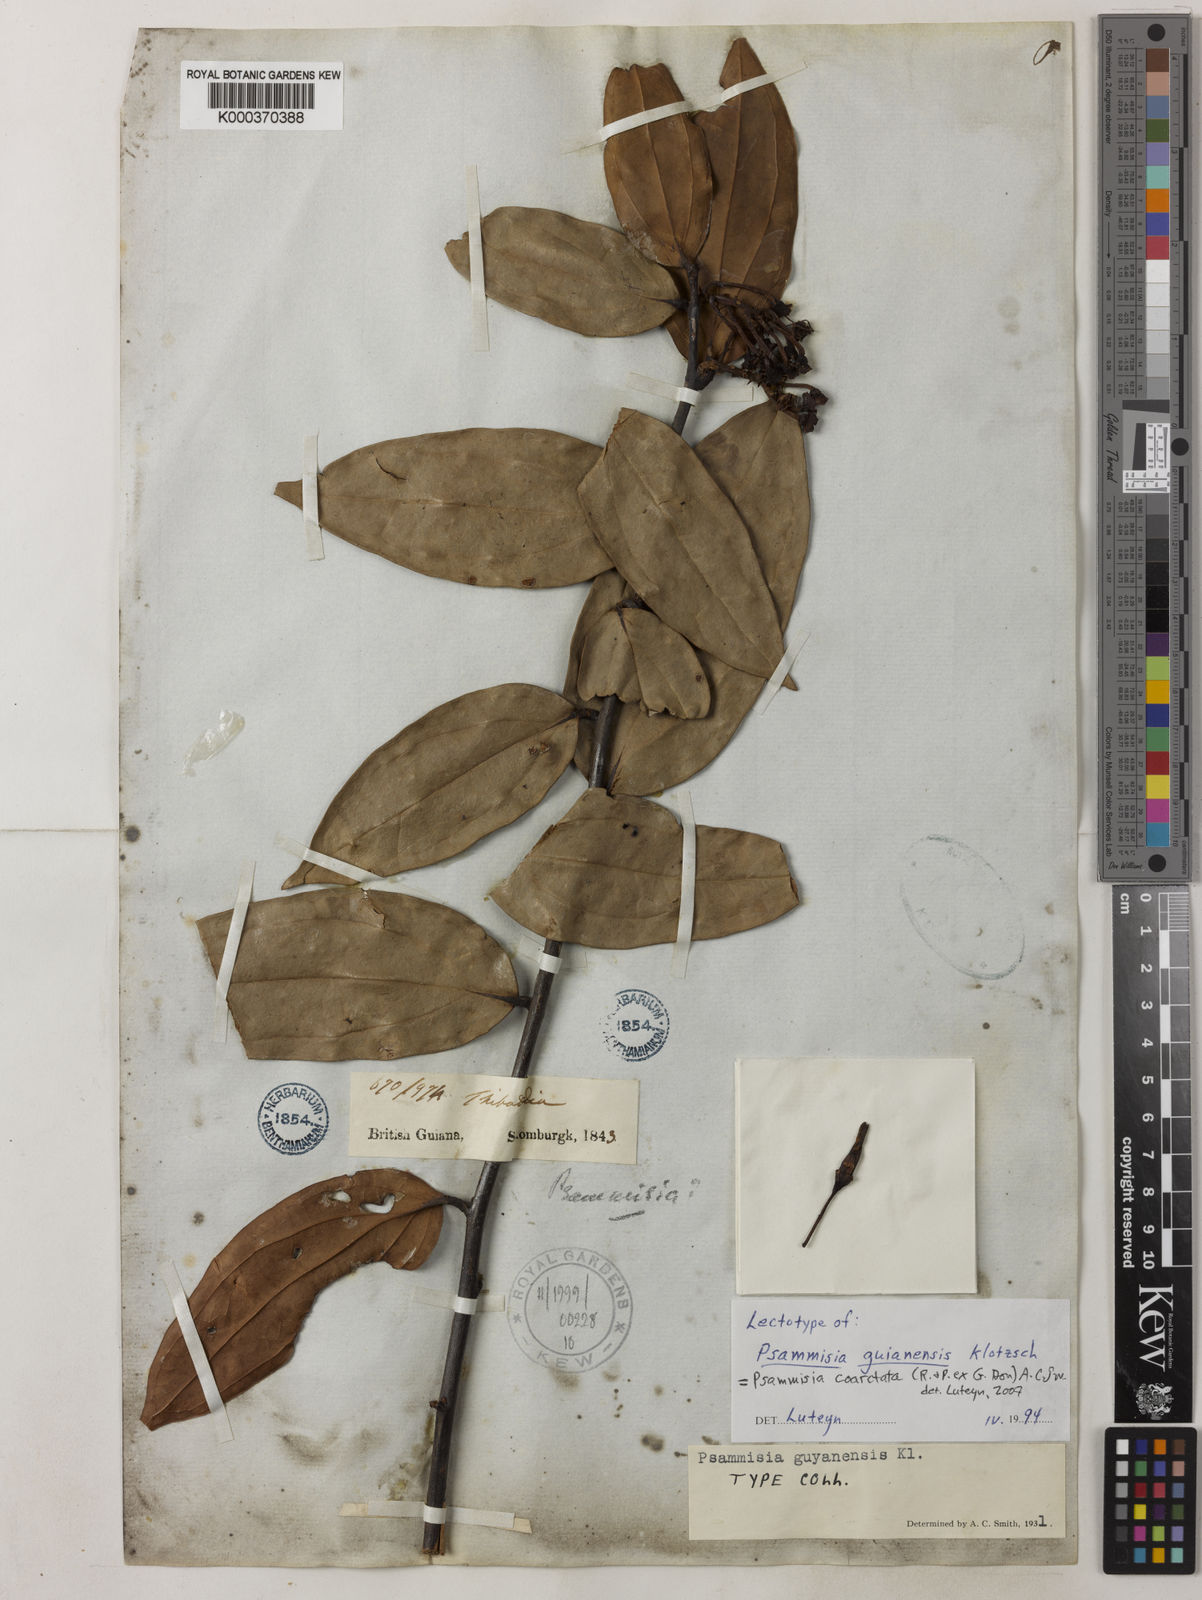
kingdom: Plantae
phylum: Tracheophyta
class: Magnoliopsida
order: Ericales
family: Ericaceae
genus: Psammisia
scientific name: Psammisia coarctata
